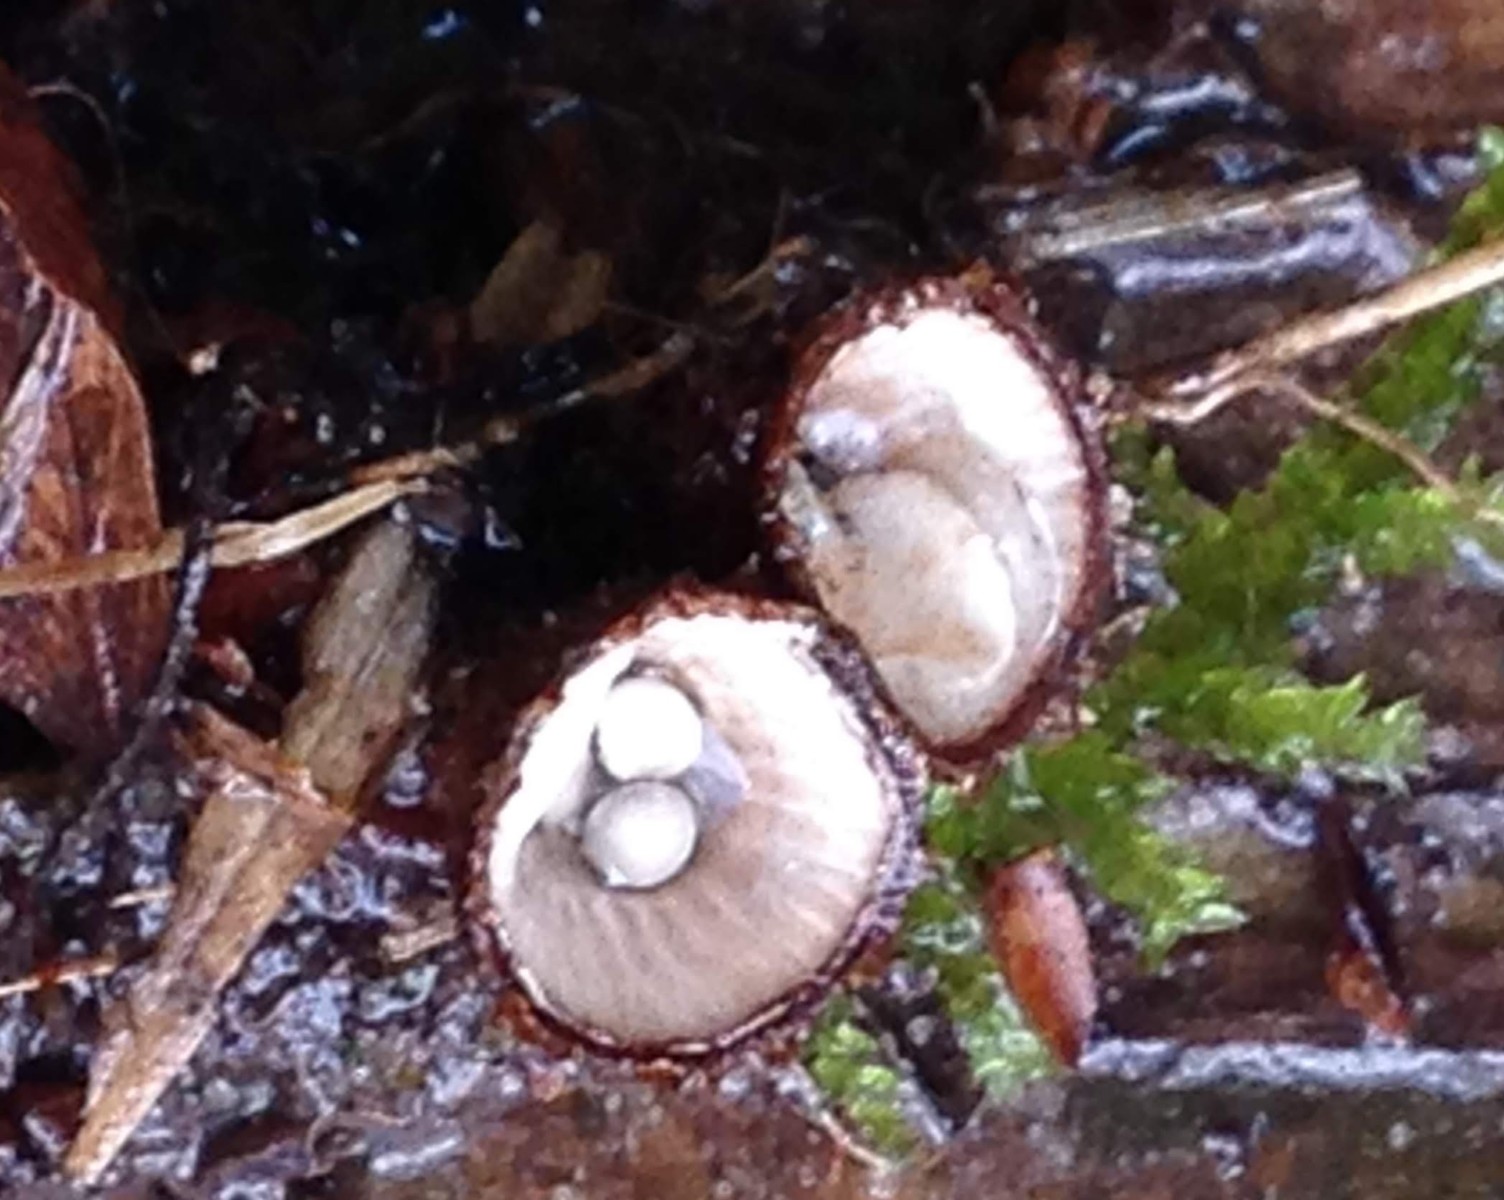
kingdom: Fungi
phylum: Basidiomycota
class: Agaricomycetes
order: Agaricales
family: Agaricaceae
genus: Cyathus
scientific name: Cyathus striatus
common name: stribet redesvamp
